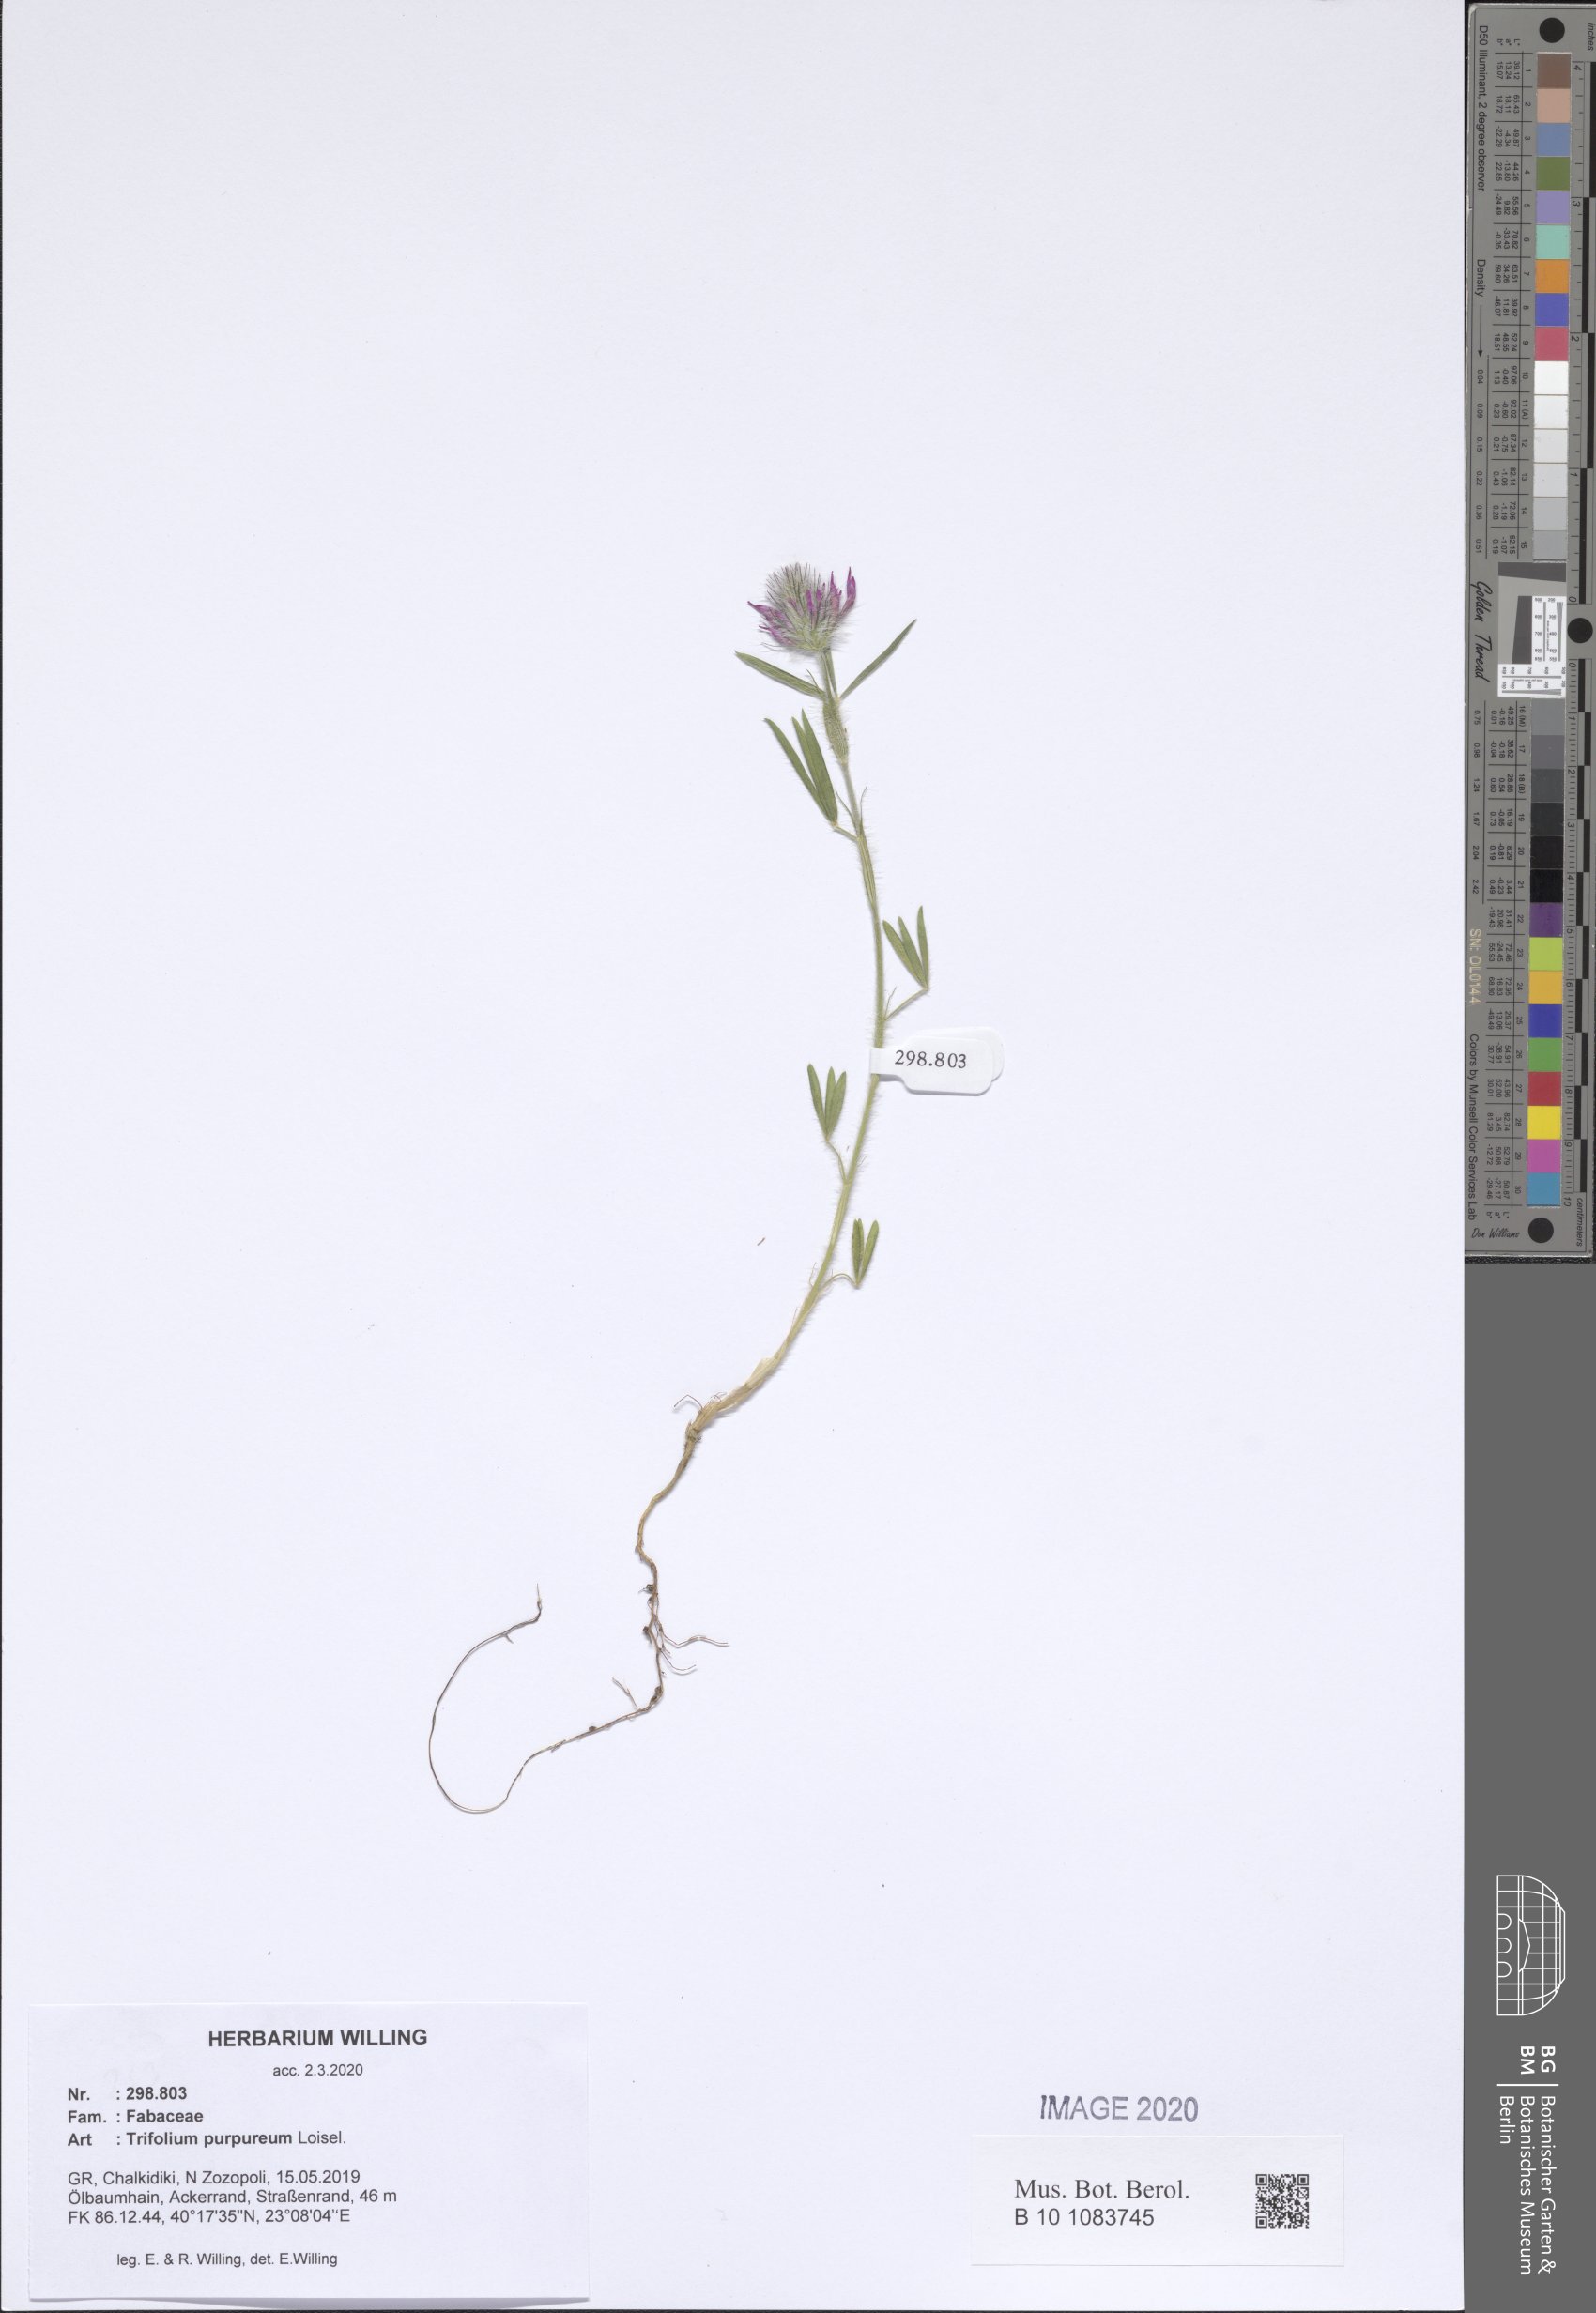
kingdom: Plantae
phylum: Tracheophyta
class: Magnoliopsida
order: Fabales
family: Fabaceae
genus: Trifolium
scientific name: Trifolium purpureum
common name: Purple clover
